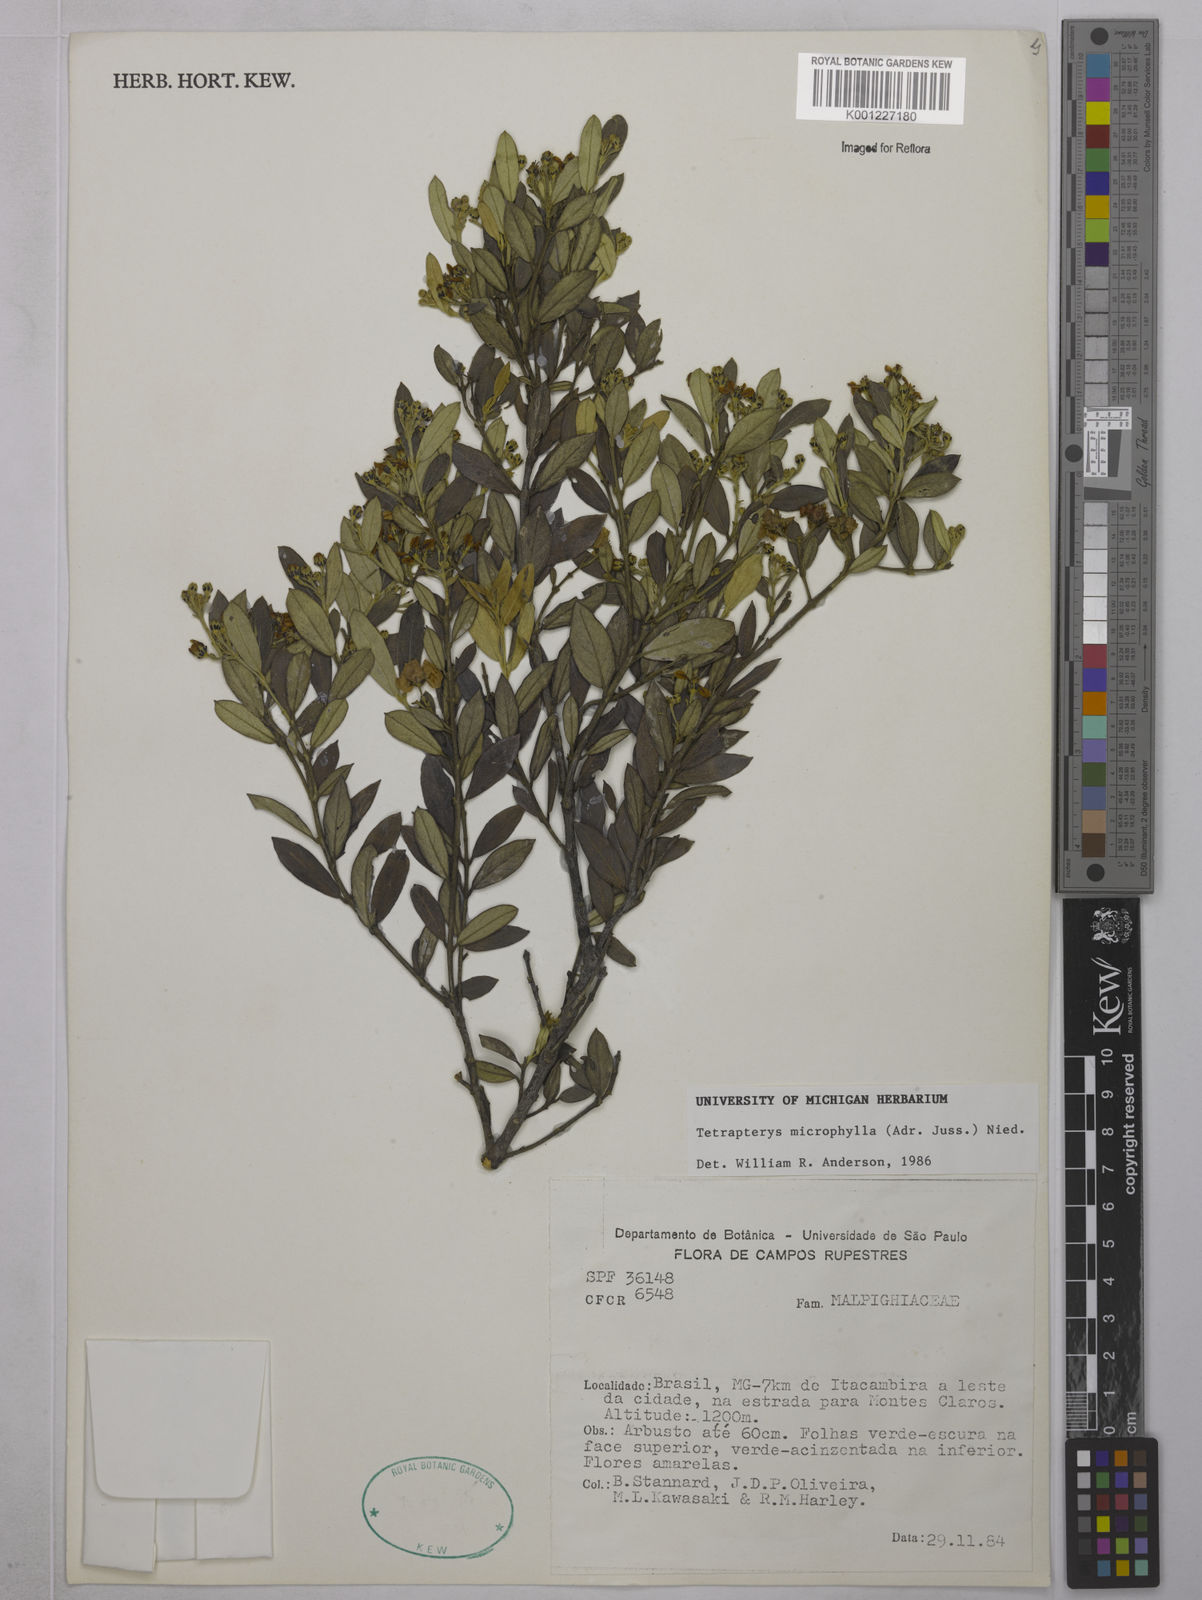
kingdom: Plantae
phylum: Tracheophyta
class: Magnoliopsida
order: Malpighiales
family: Malpighiaceae
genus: Glicophyllum
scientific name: Glicophyllum microphyllum
